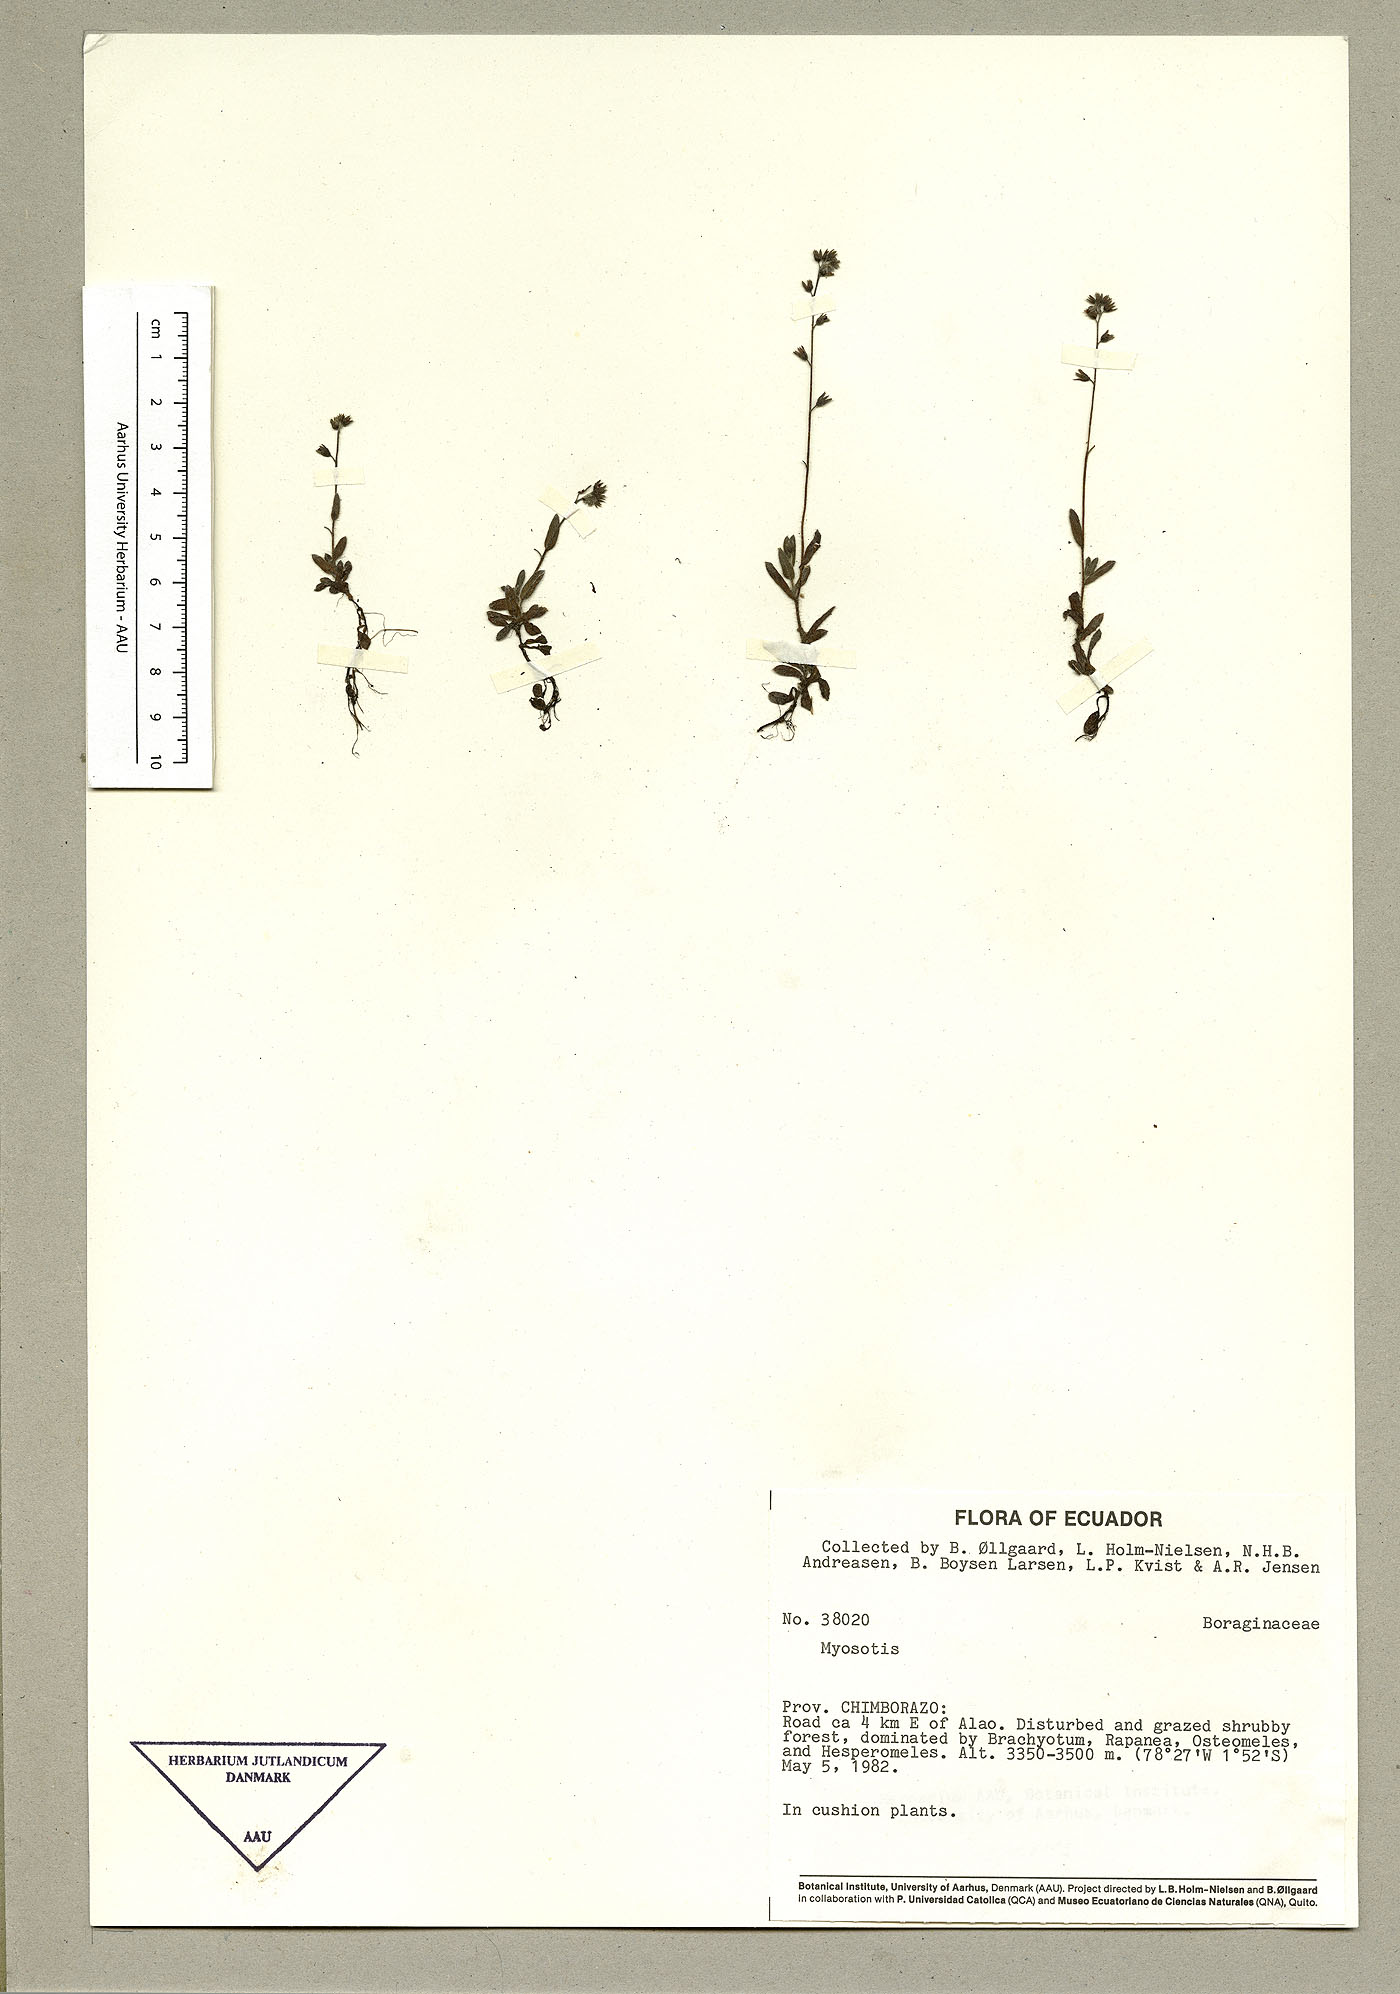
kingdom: Plantae
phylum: Tracheophyta
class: Magnoliopsida
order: Boraginales
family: Boraginaceae
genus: Myosotis
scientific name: Myosotis discolor
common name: Changing forget-me-not
